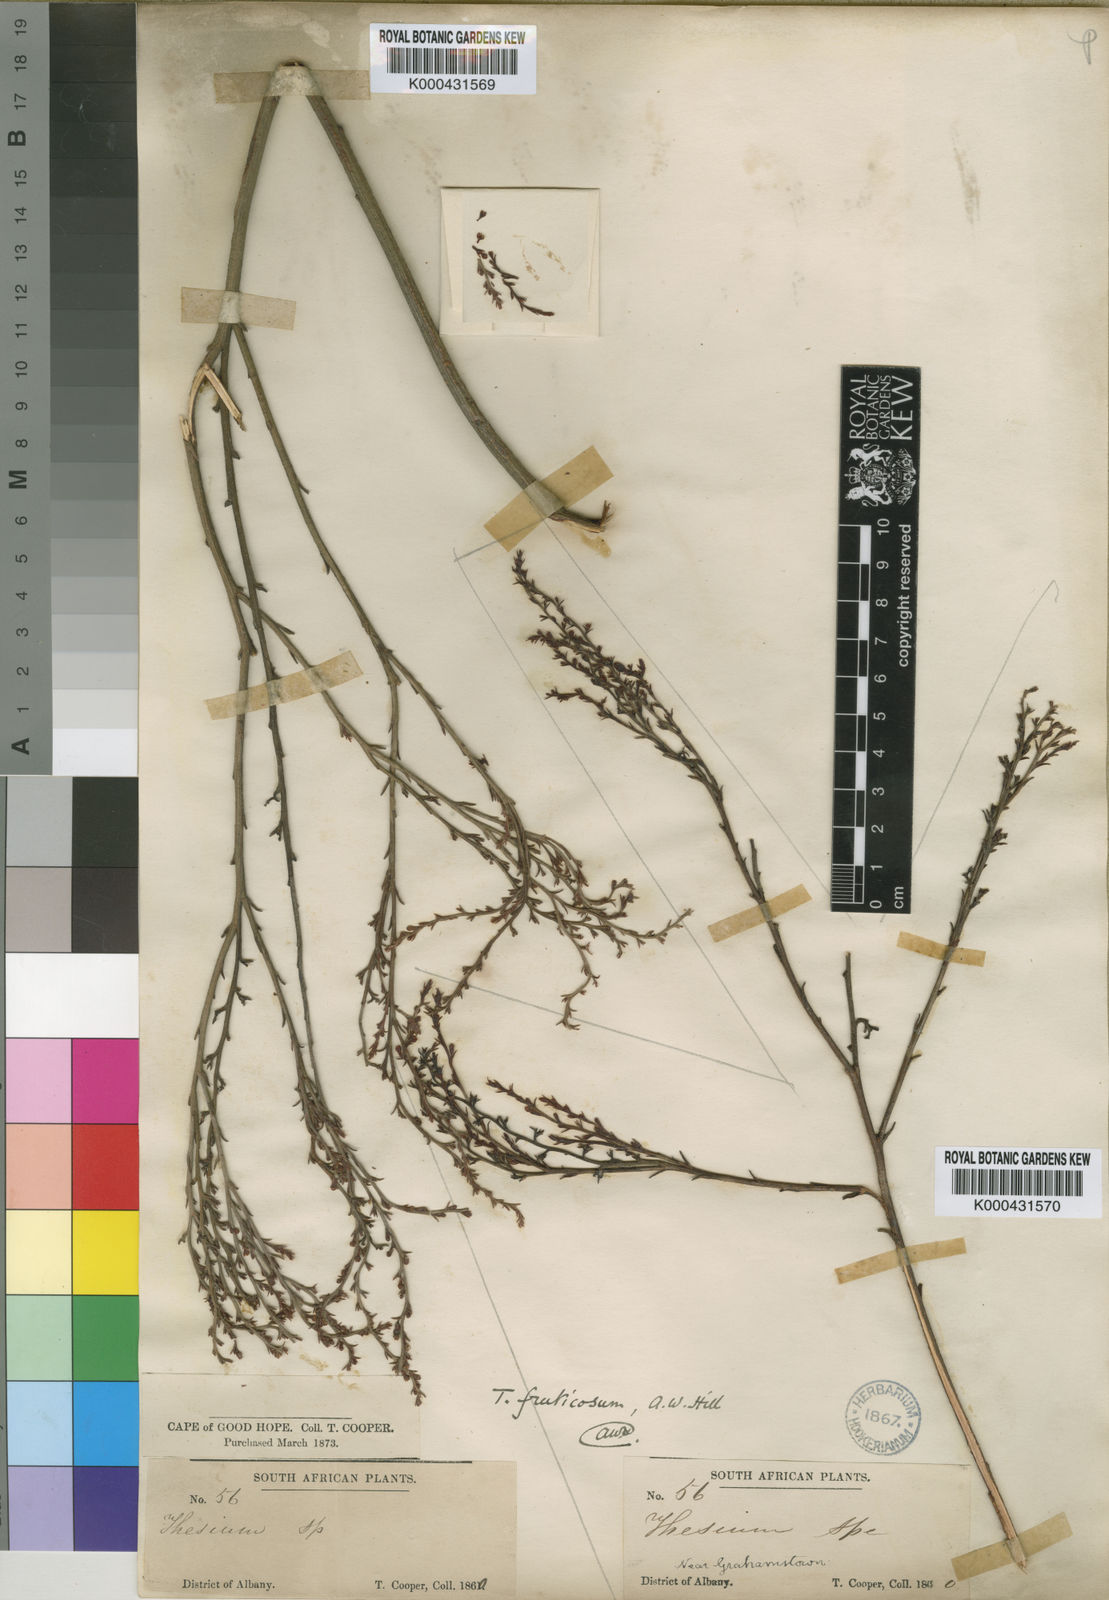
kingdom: Plantae
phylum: Tracheophyta
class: Magnoliopsida
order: Santalales
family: Thesiaceae
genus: Thesium
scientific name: Thesium fruticosum
